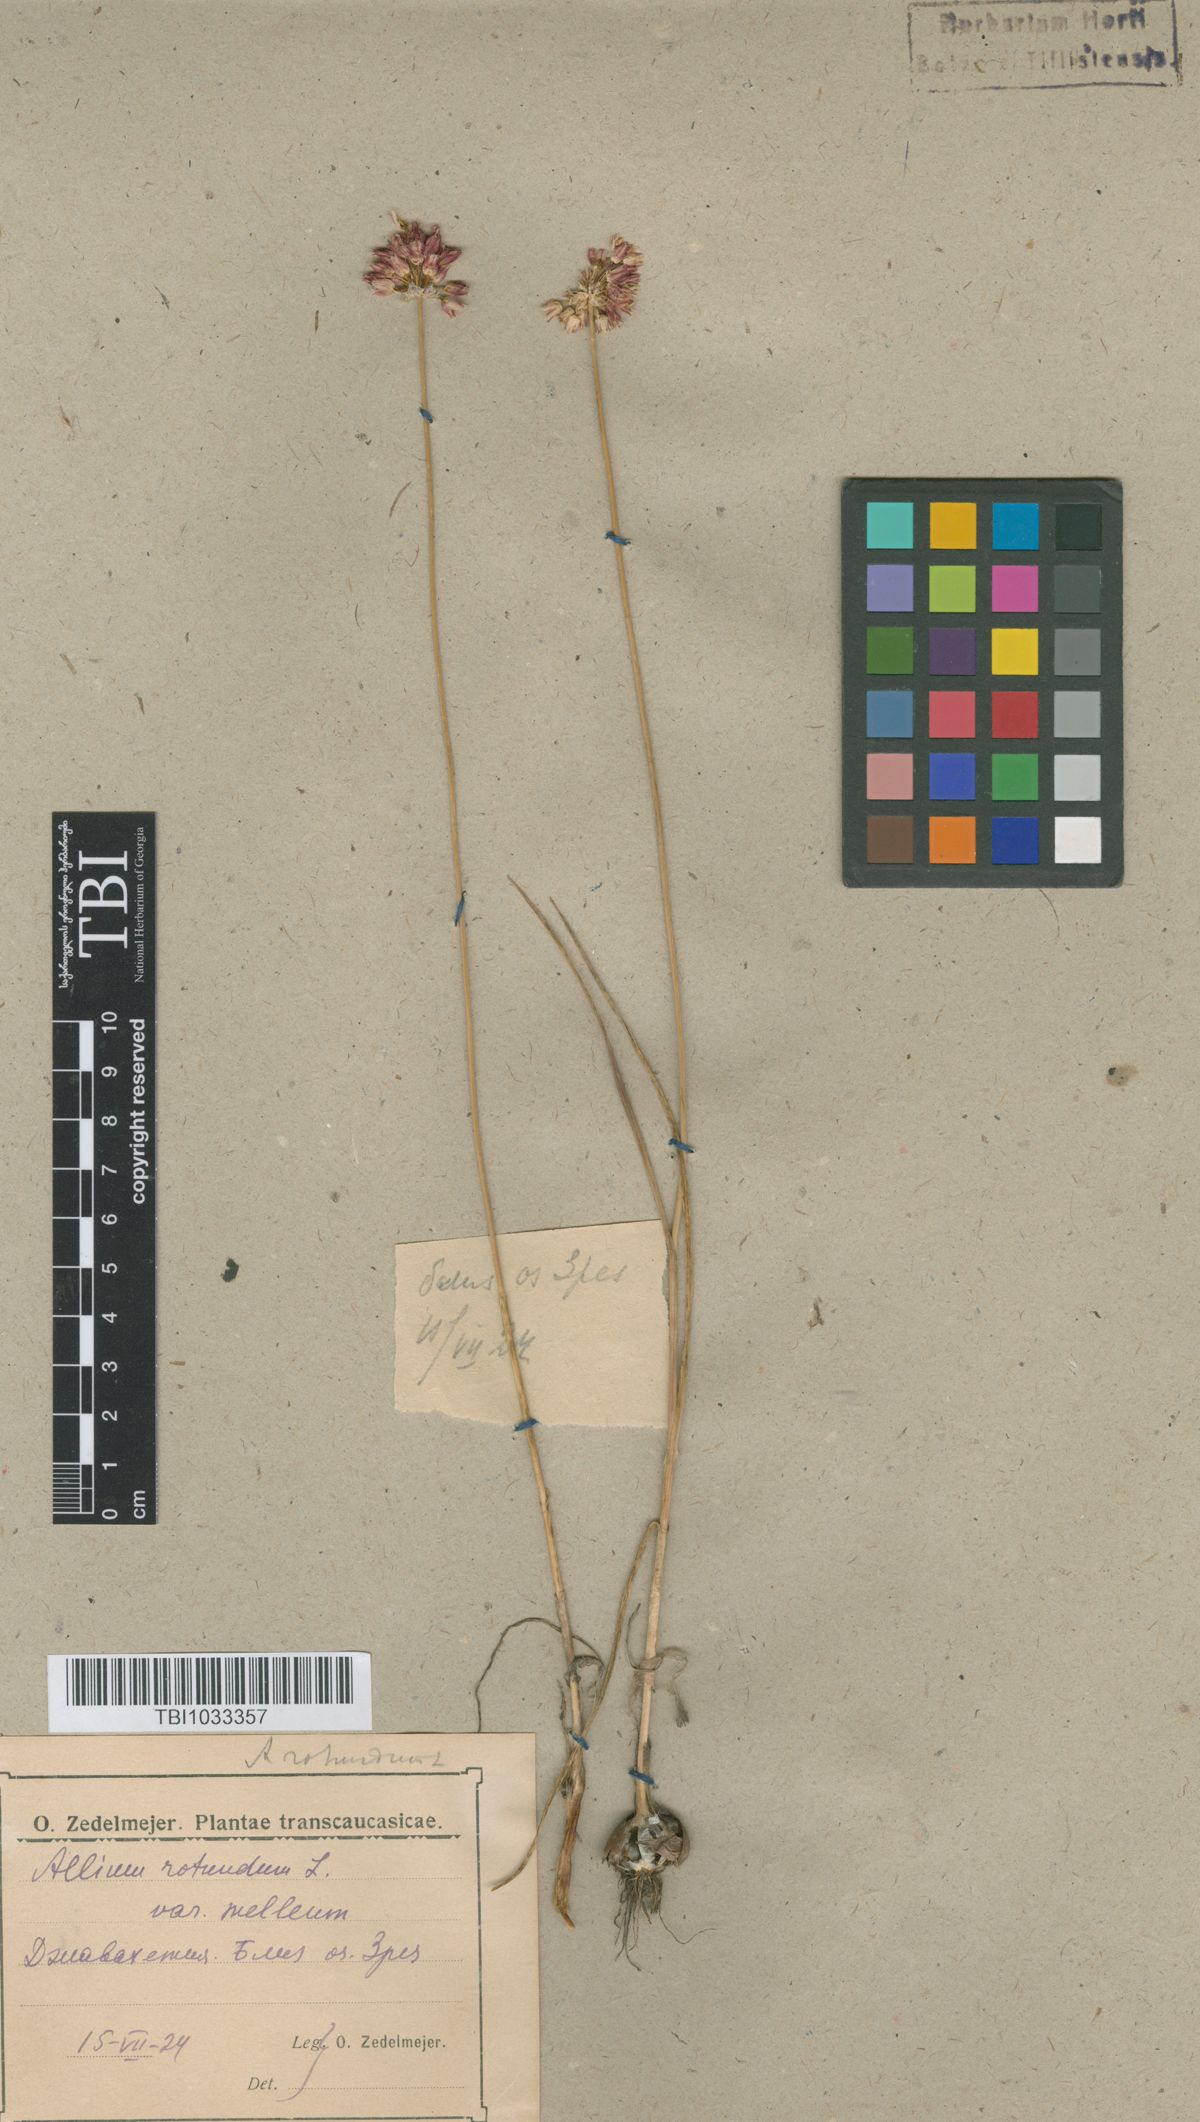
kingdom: Plantae
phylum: Tracheophyta
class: Liliopsida
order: Asparagales
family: Amaryllidaceae
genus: Allium
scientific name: Allium rotundum
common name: Sand leek
